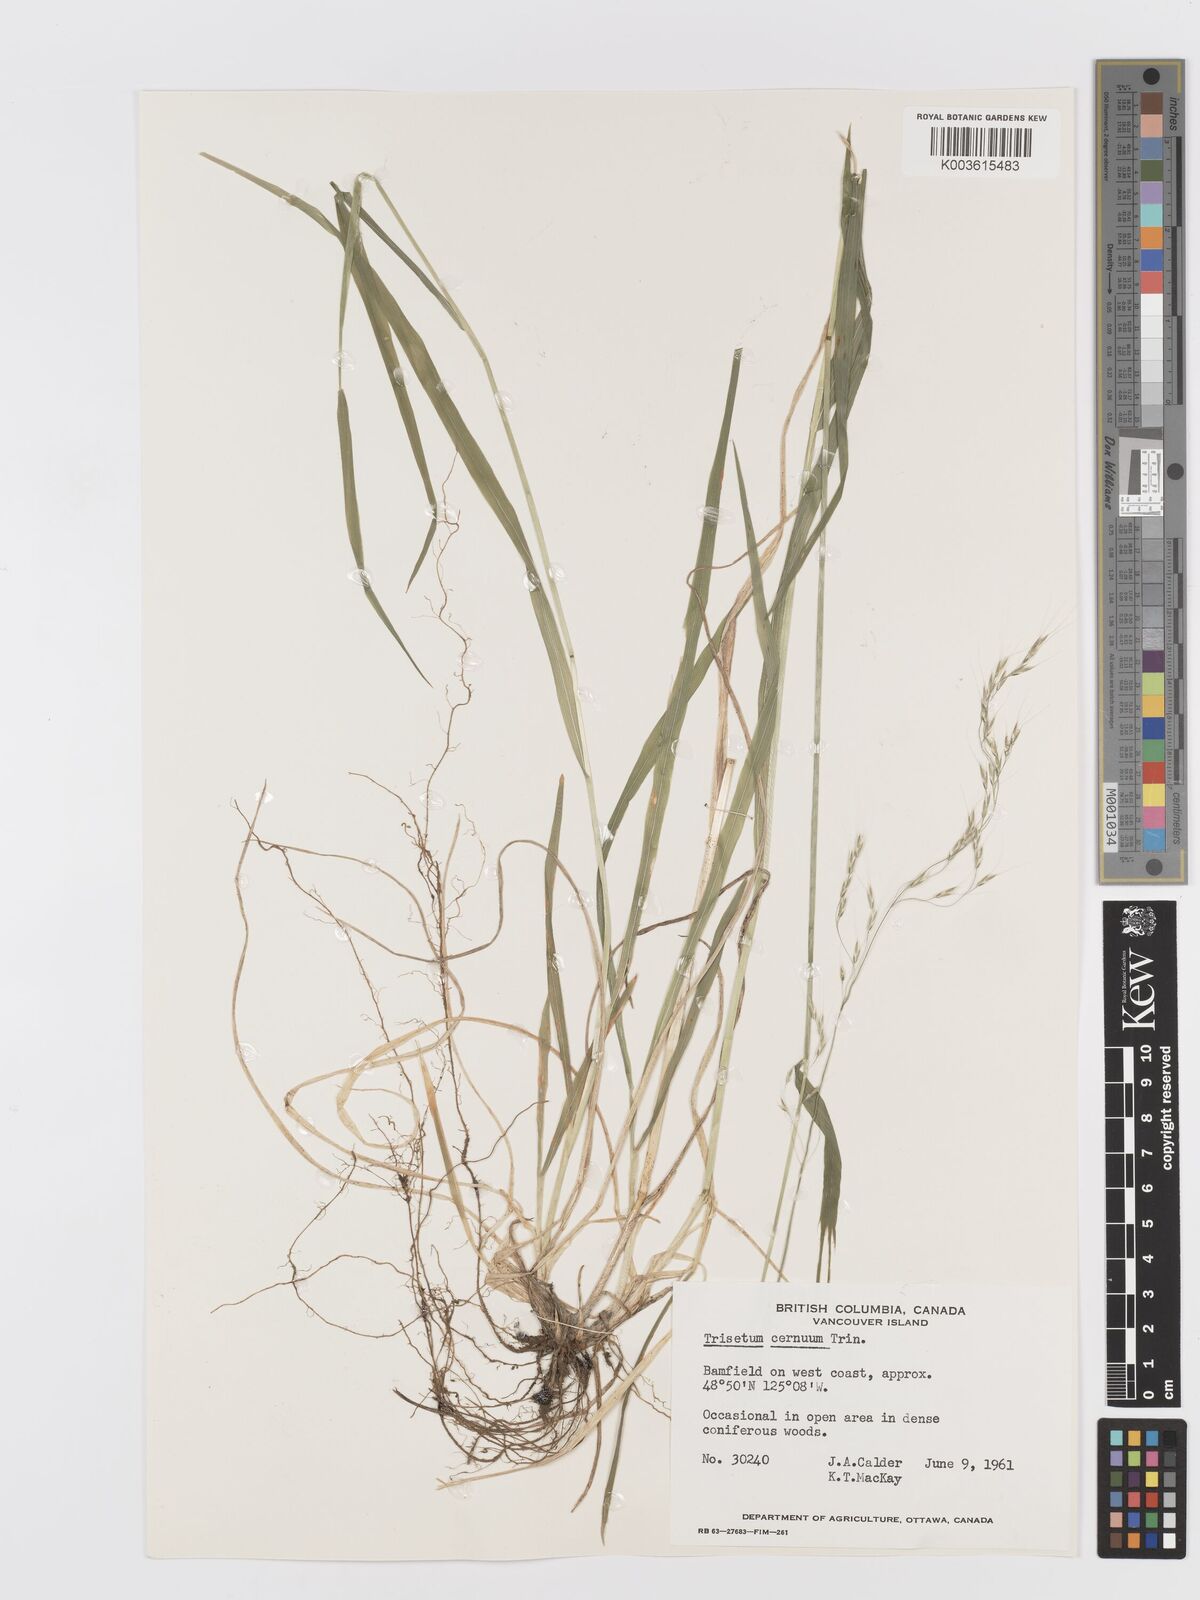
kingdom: Plantae
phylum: Tracheophyta
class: Liliopsida
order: Poales
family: Poaceae
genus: Graphephorum
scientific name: Graphephorum cernuum
